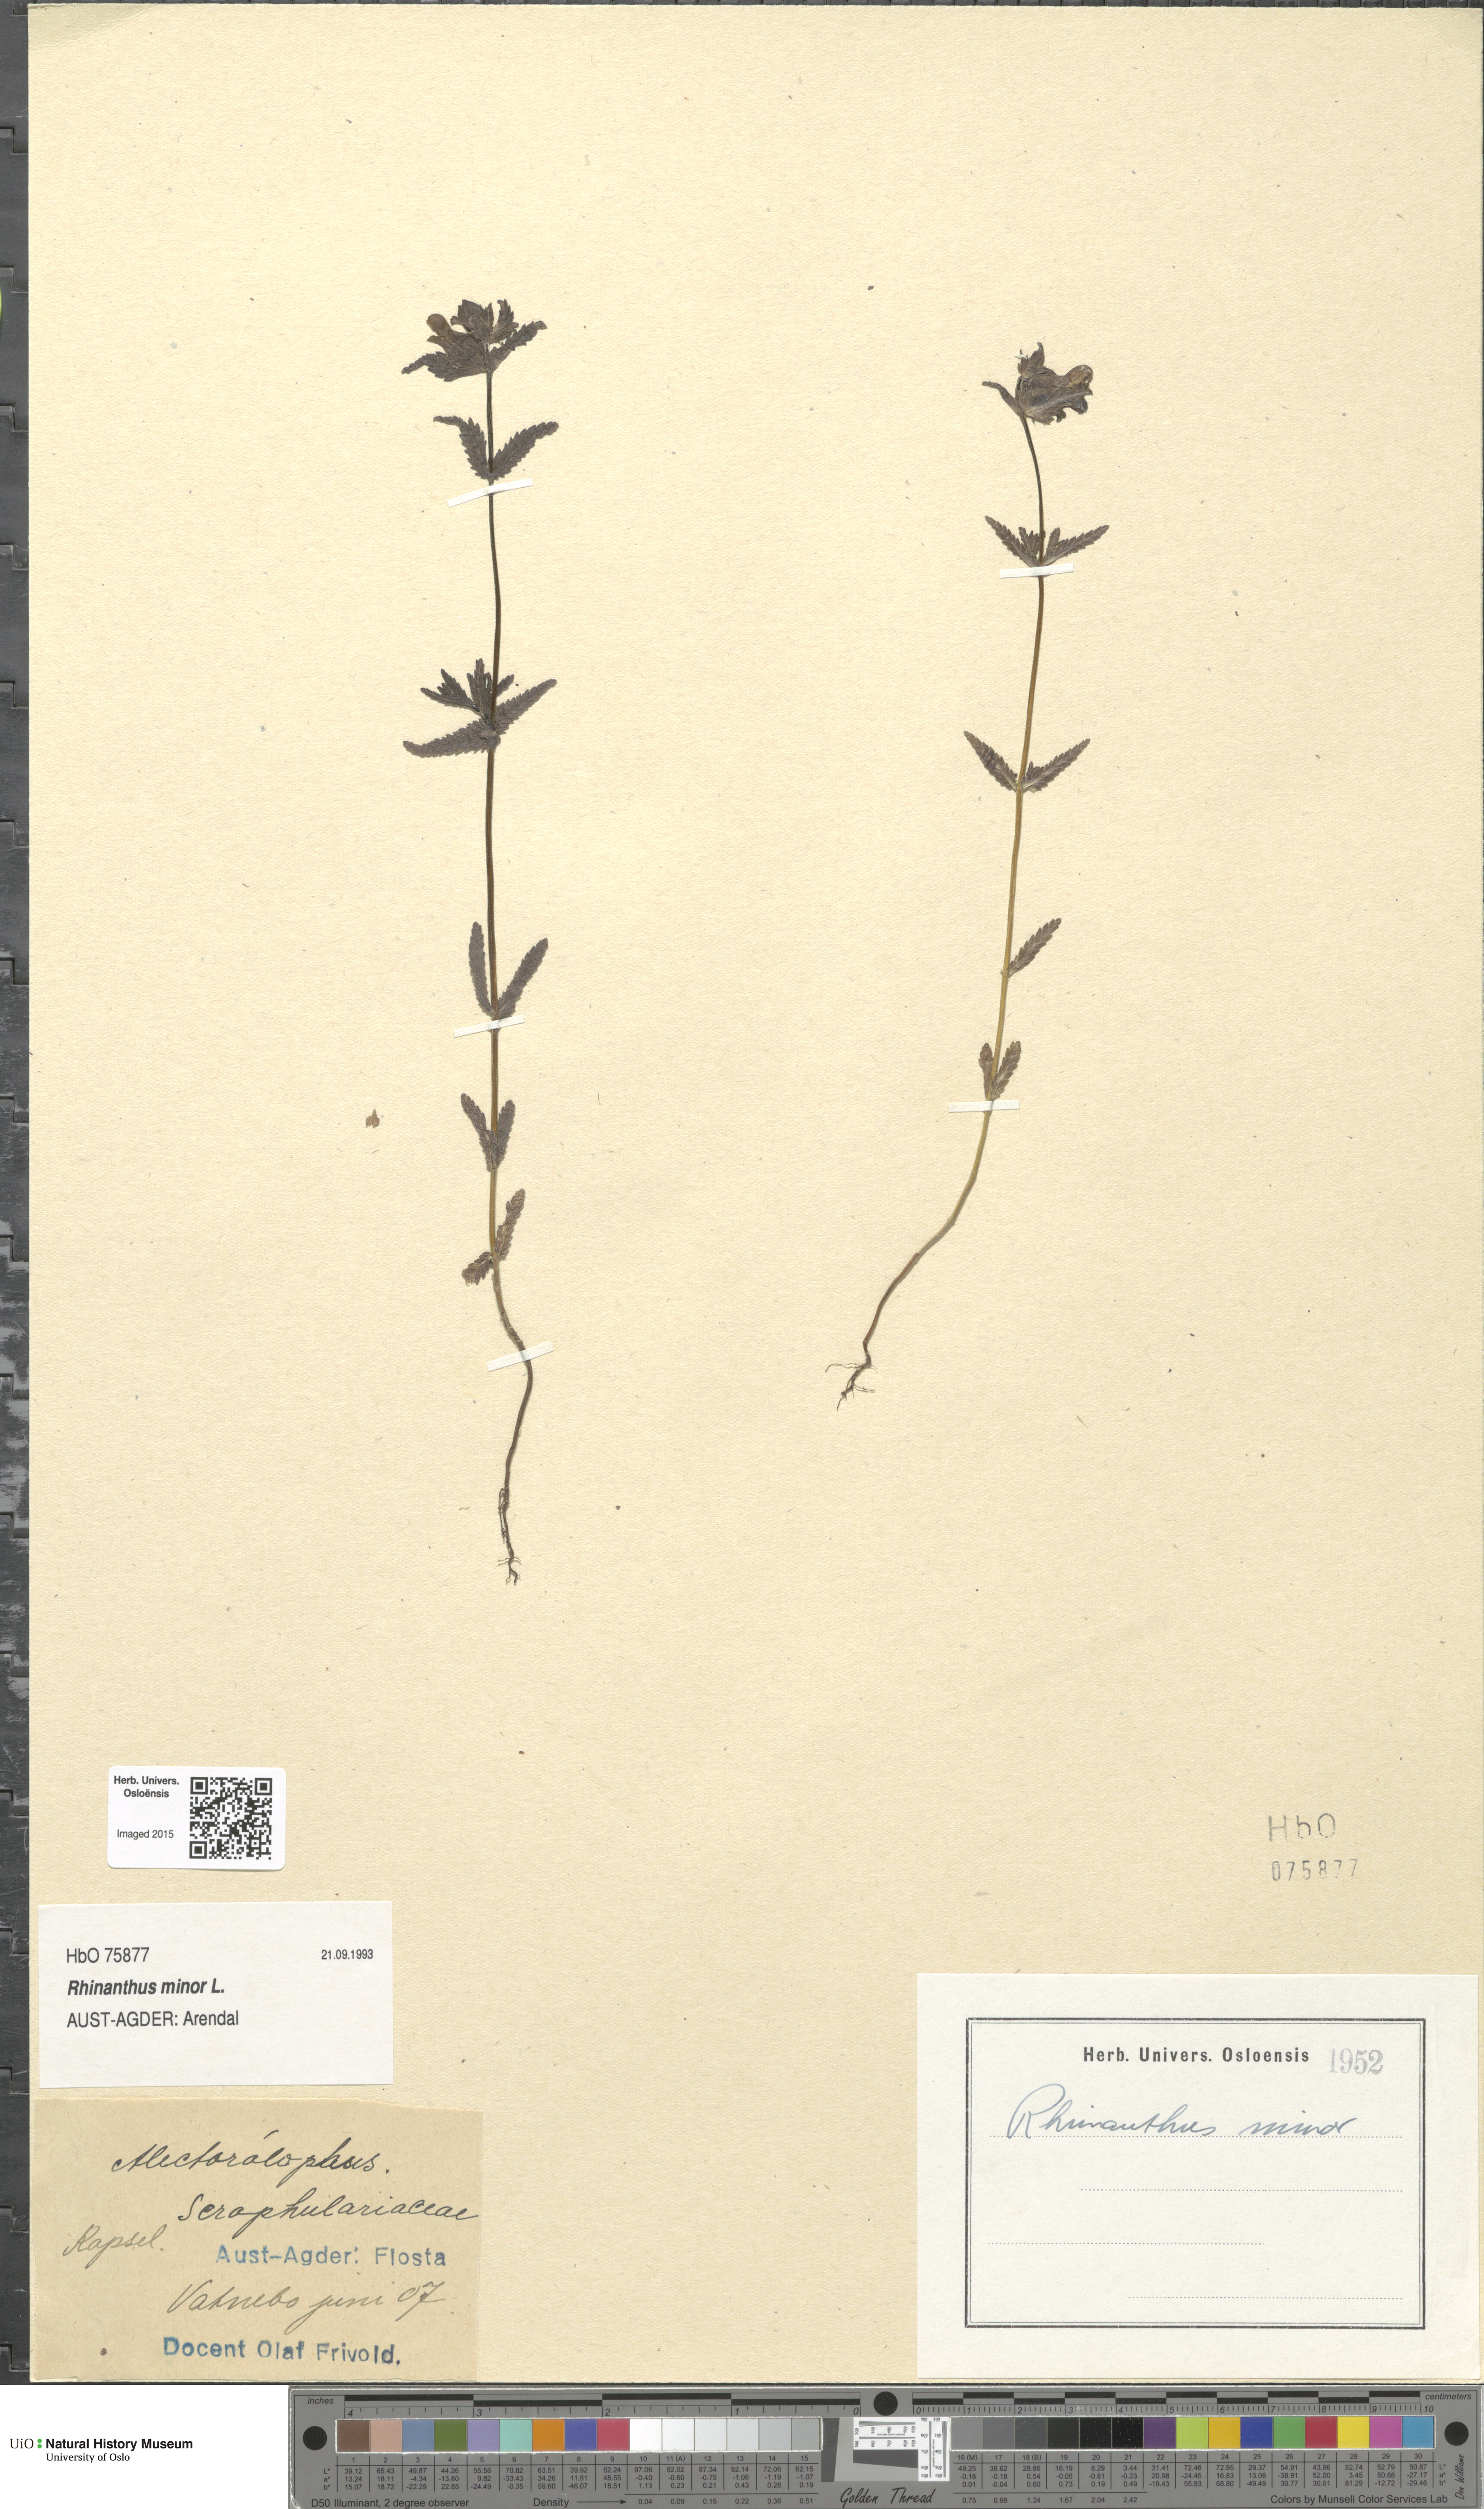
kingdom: Plantae
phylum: Tracheophyta
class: Magnoliopsida
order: Lamiales
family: Orobanchaceae
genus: Rhinanthus
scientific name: Rhinanthus minor
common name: Yellow-rattle
